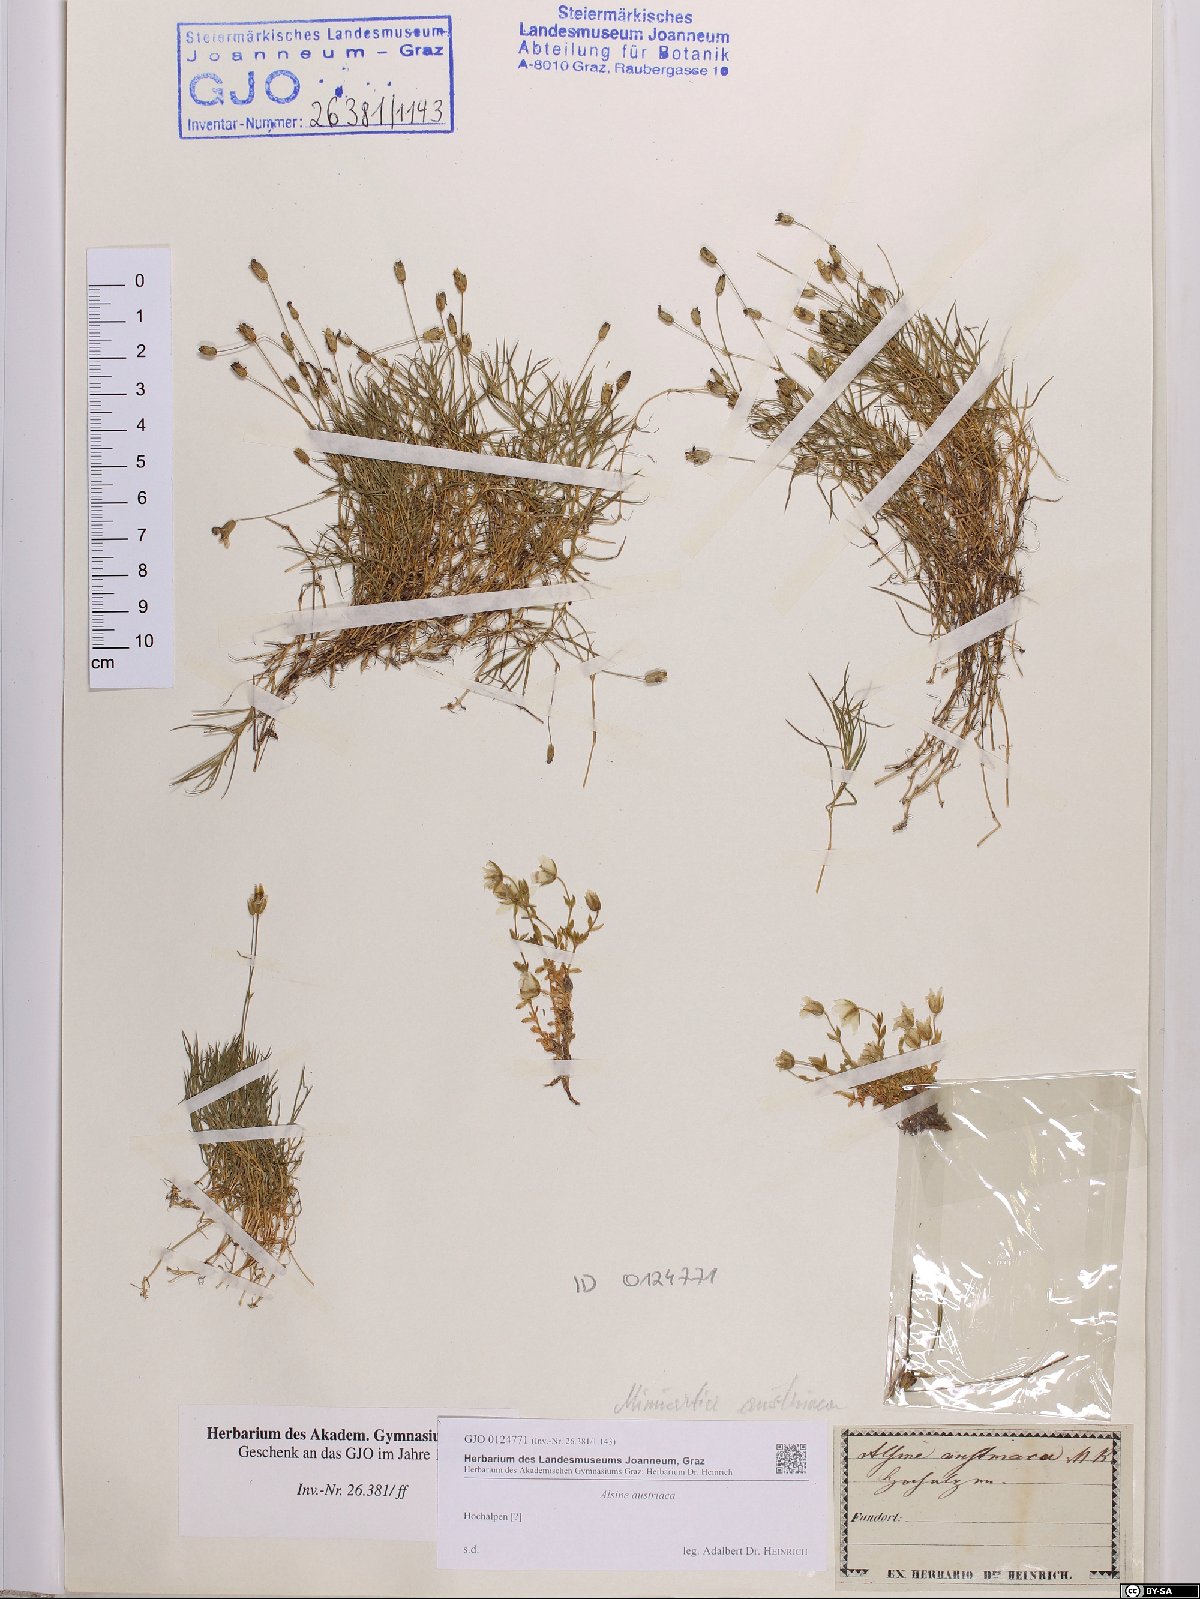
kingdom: Plantae
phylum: Tracheophyta
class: Magnoliopsida
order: Caryophyllales
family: Caryophyllaceae
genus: Sabulina
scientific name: Sabulina austriaca
